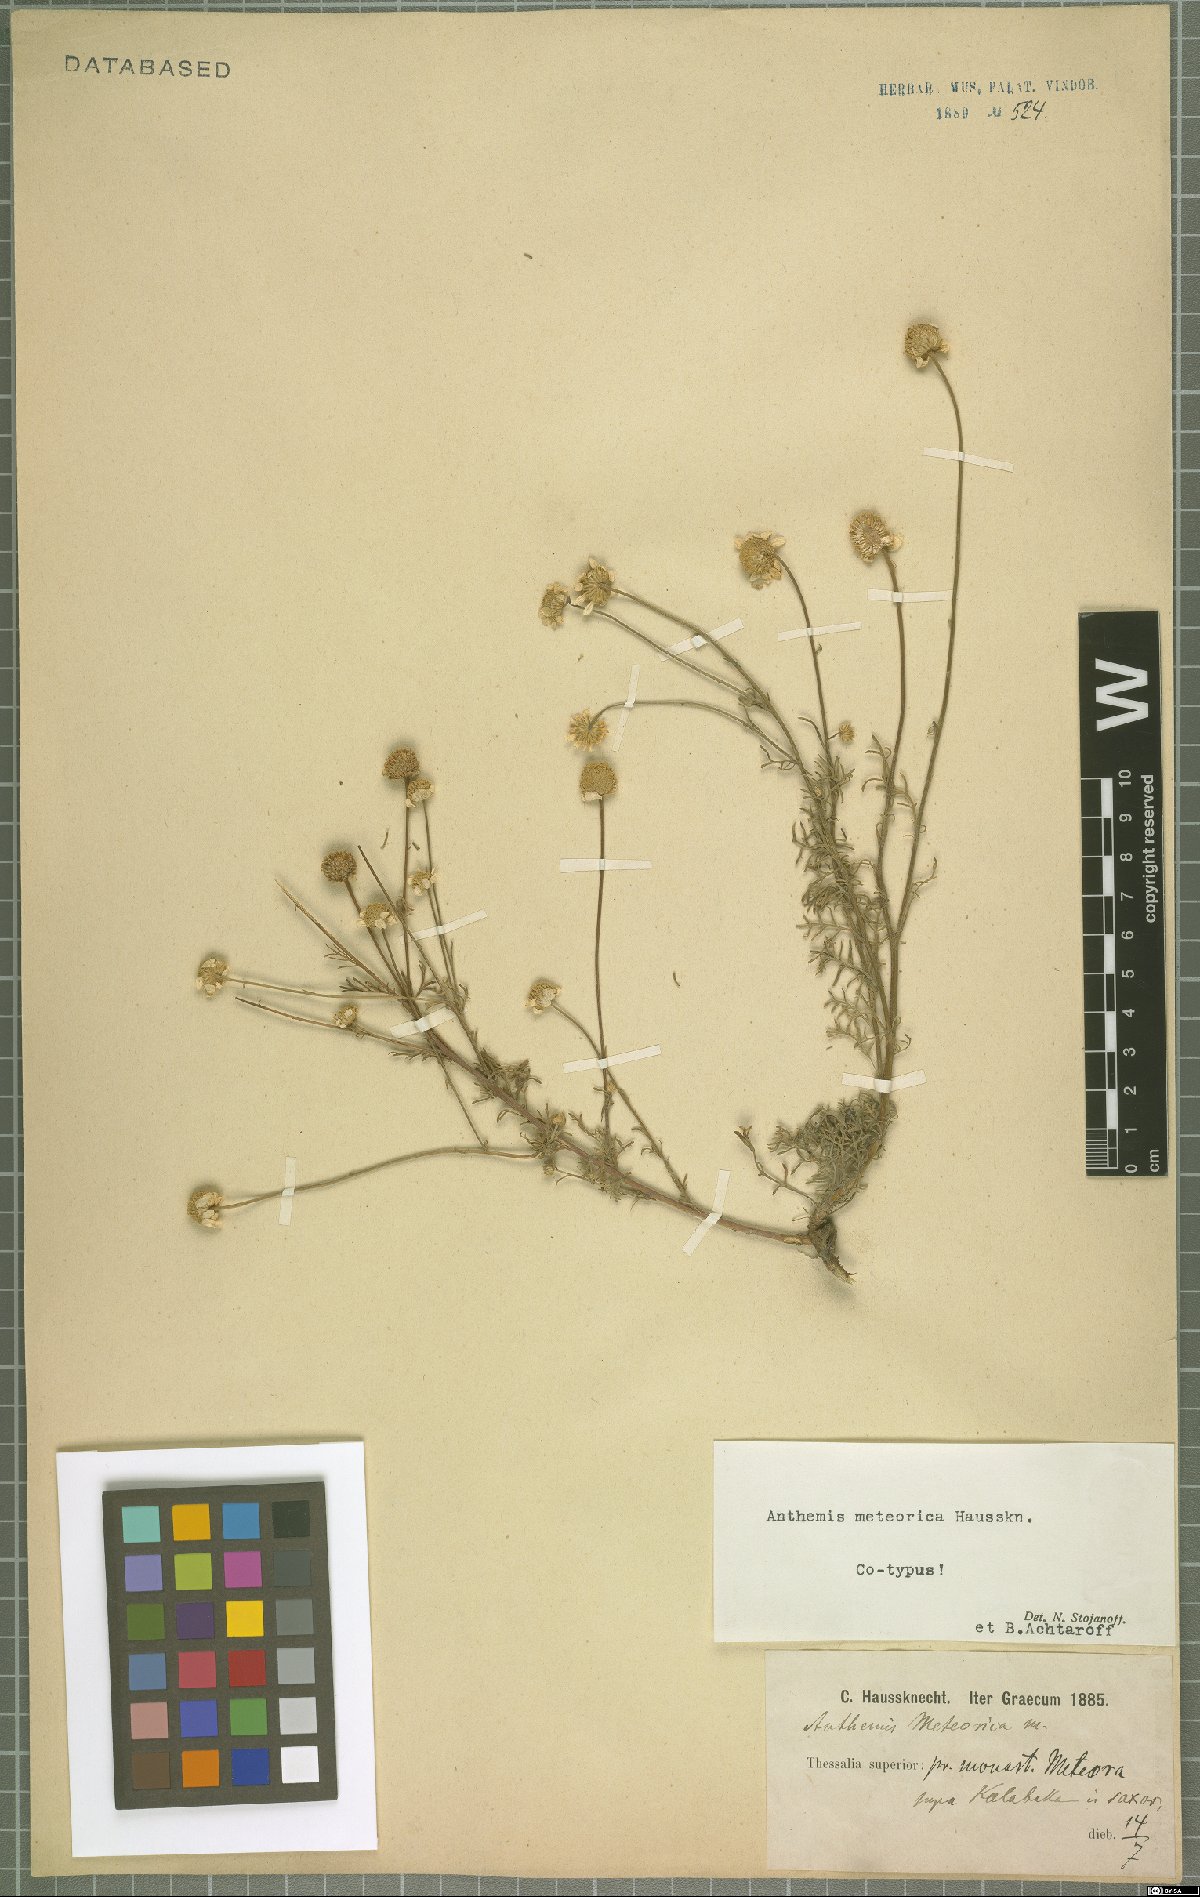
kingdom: Plantae
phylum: Tracheophyta
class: Magnoliopsida
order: Asterales
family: Asteraceae
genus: Anthemis
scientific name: Anthemis cretica
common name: Mountain dog-daisy
